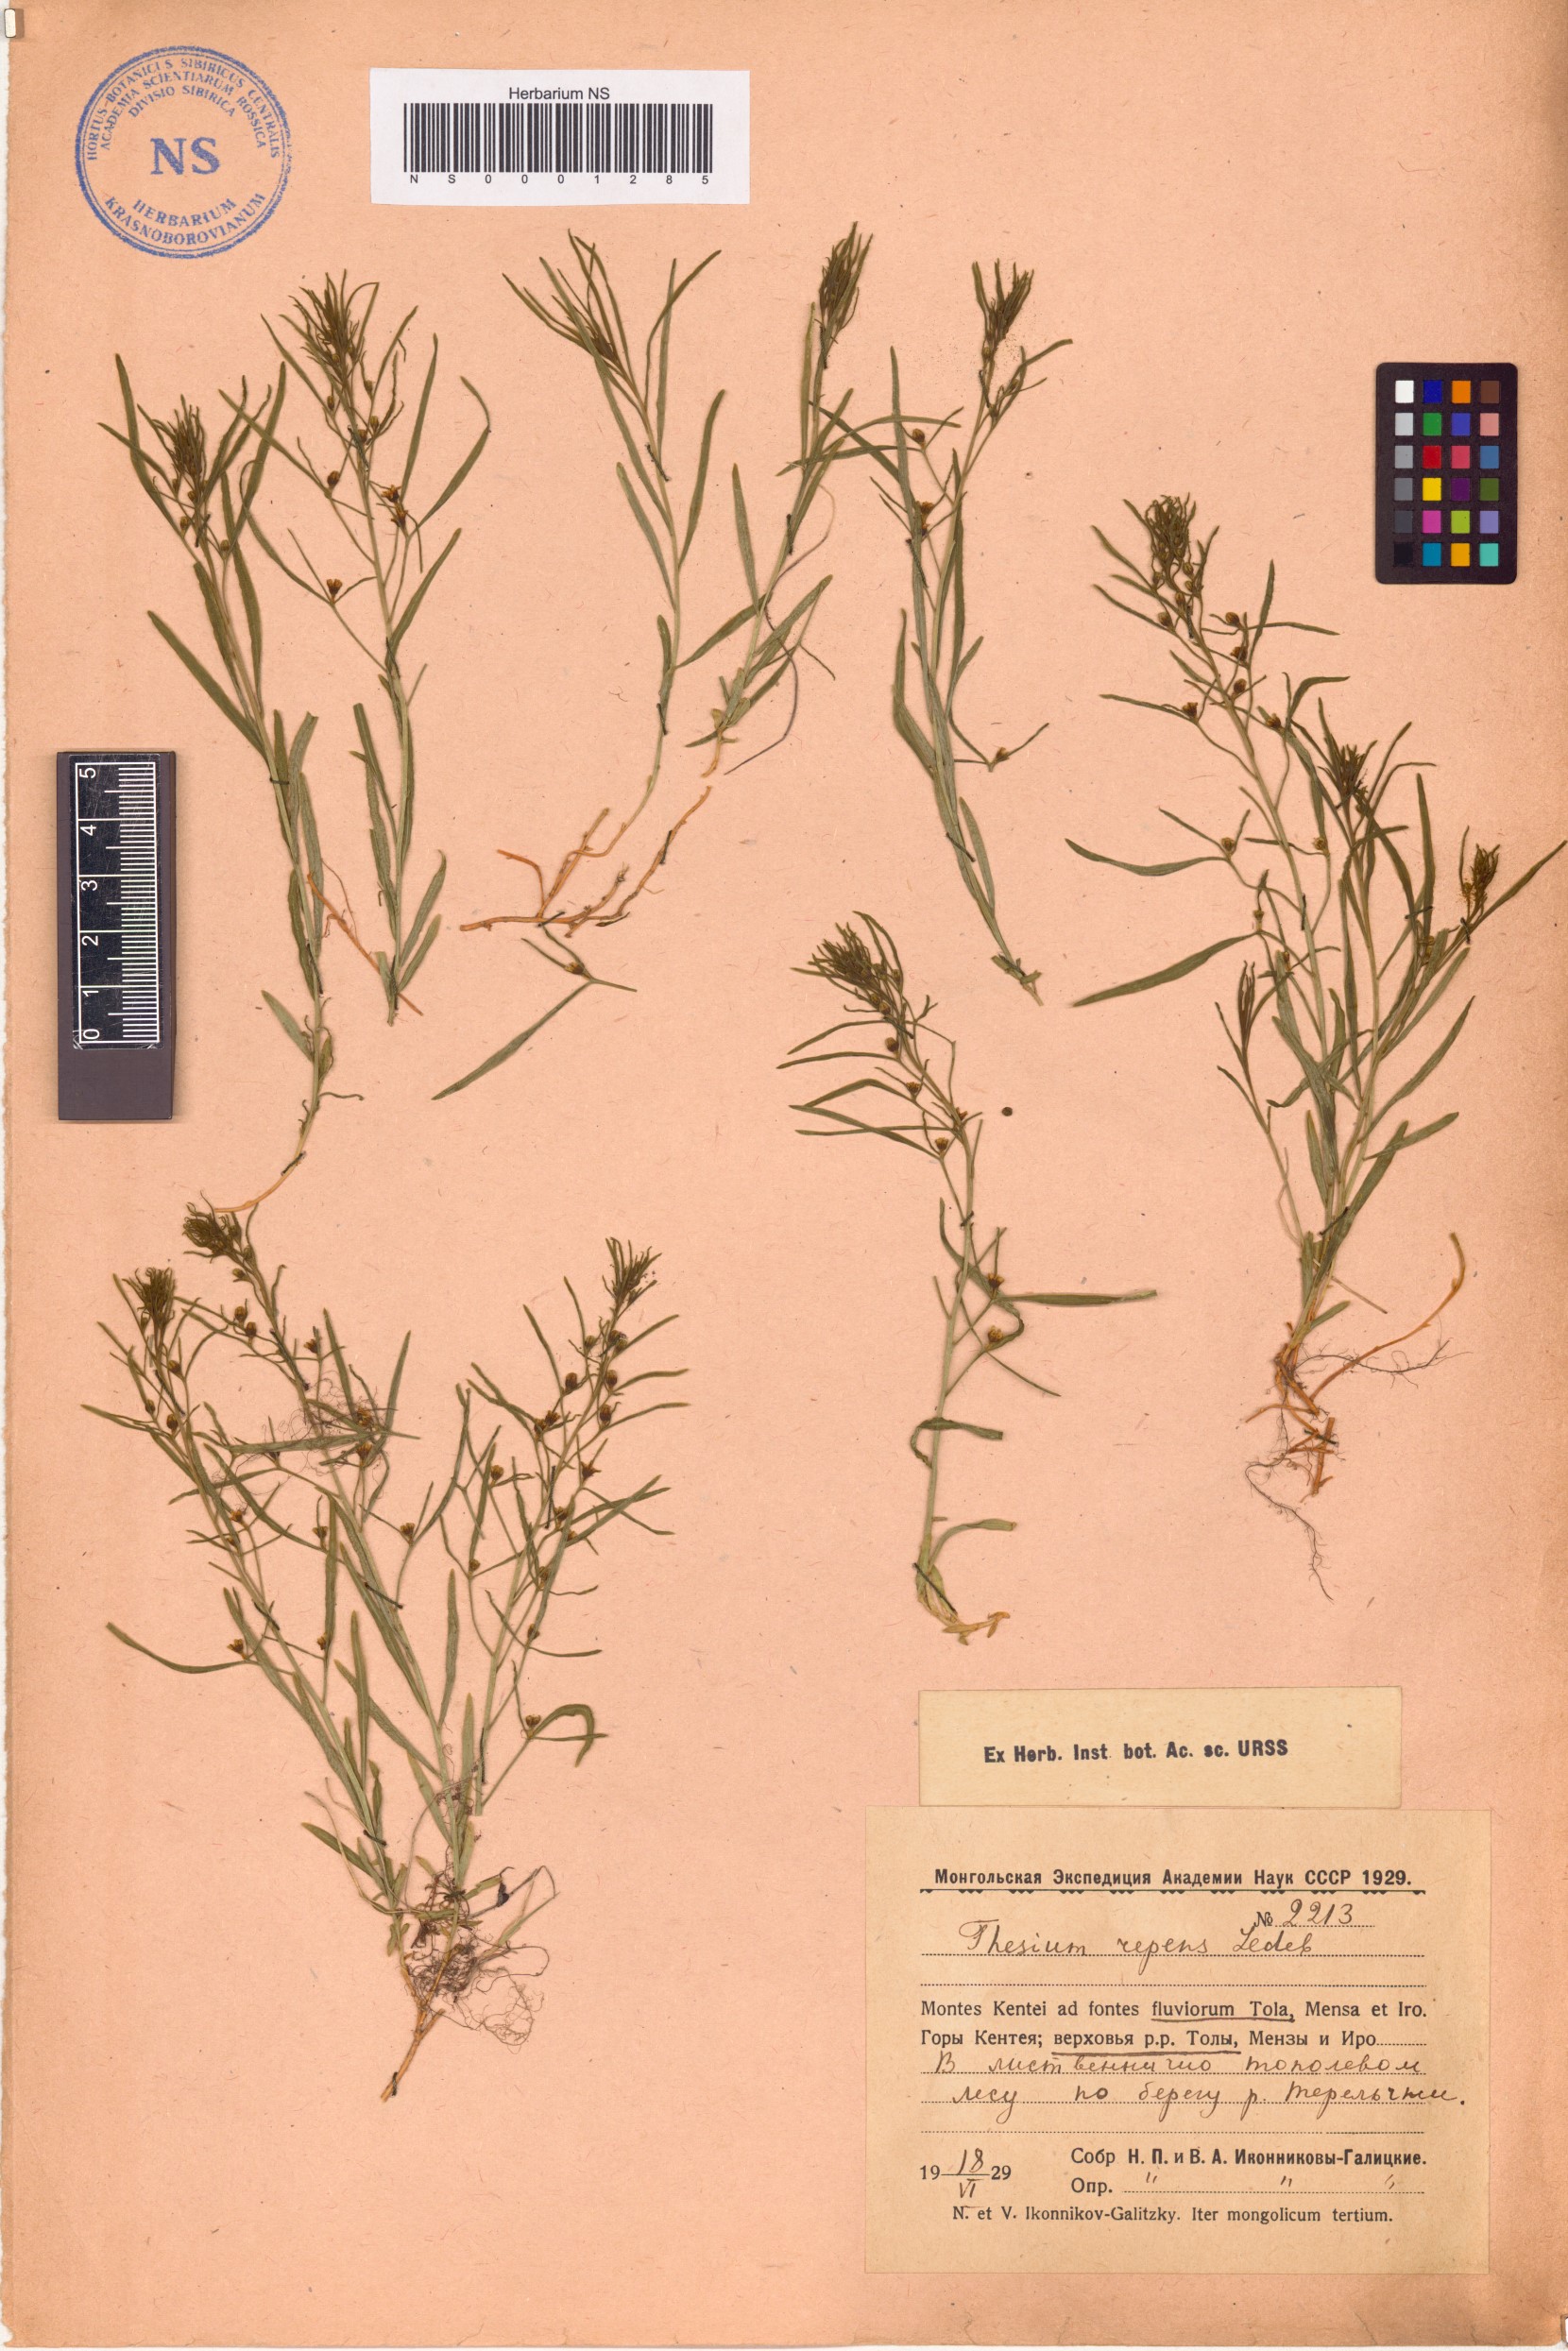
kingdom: Plantae
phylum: Tracheophyta
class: Magnoliopsida
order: Santalales
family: Thesiaceae
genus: Thesium
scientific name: Thesium repens
